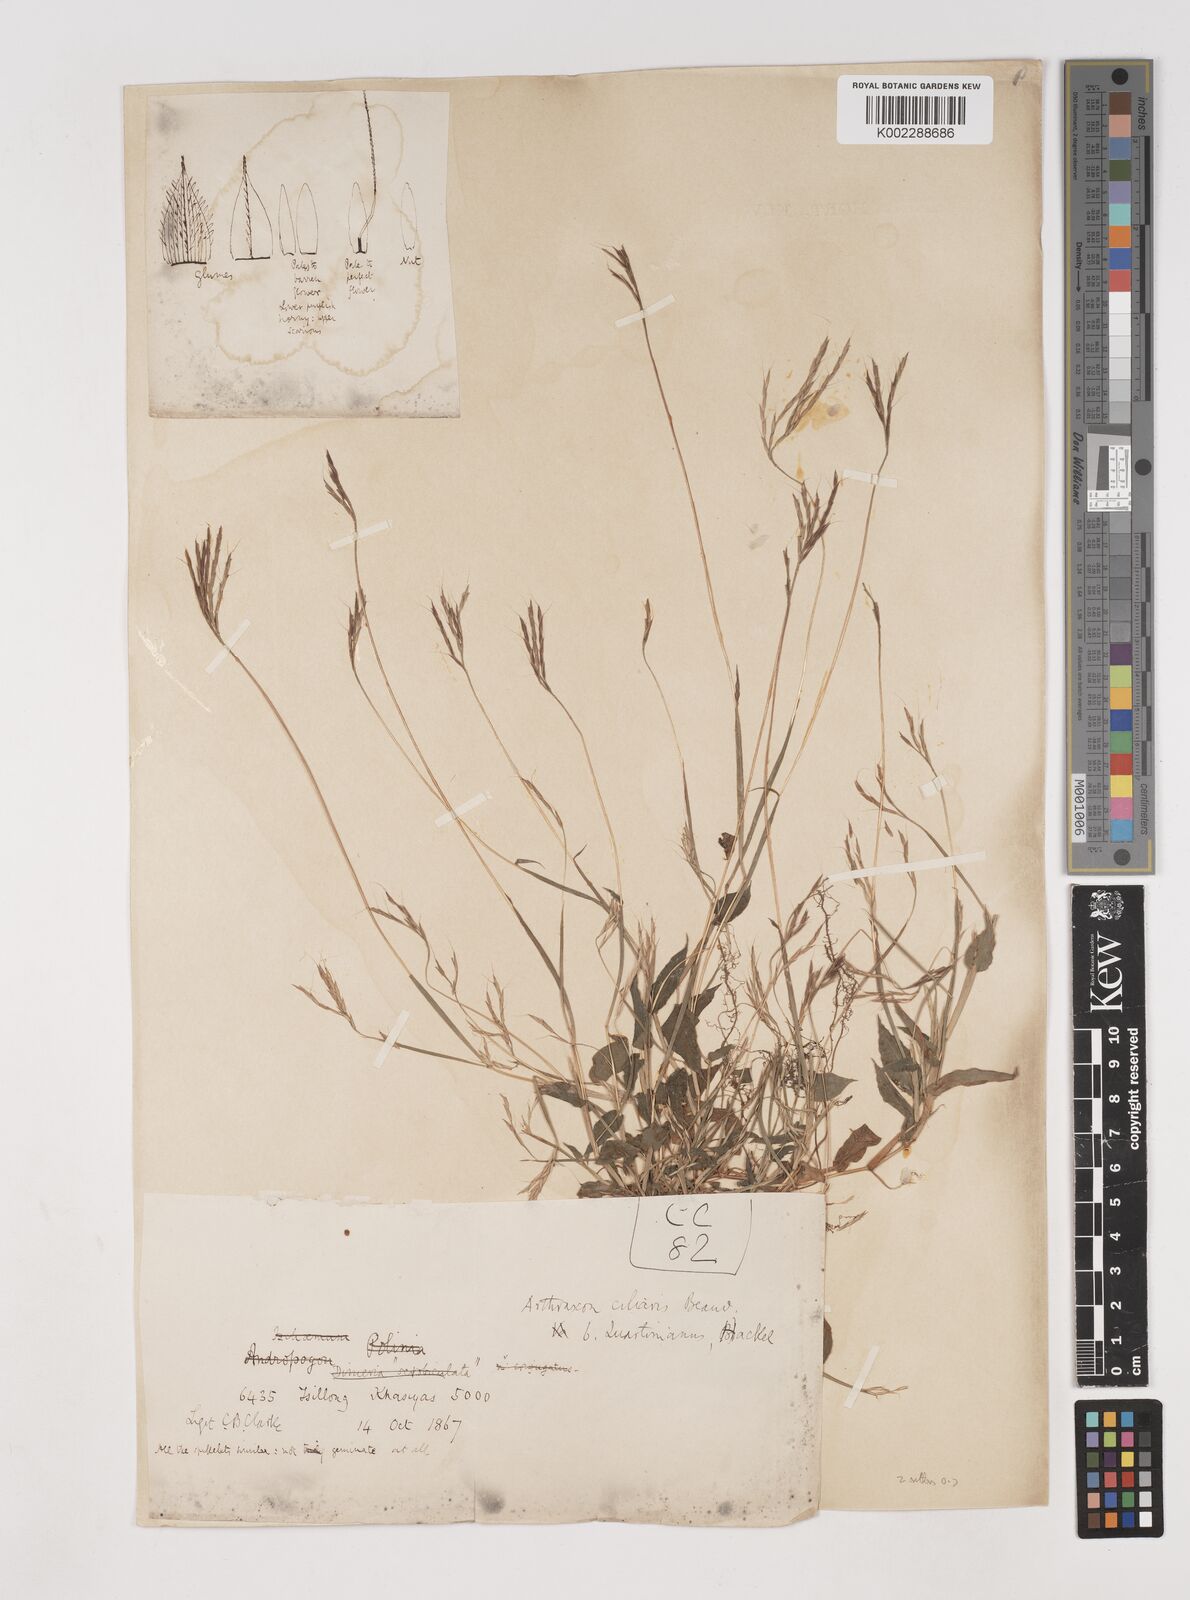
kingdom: Plantae
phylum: Tracheophyta
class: Liliopsida
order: Poales
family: Poaceae
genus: Arthraxon
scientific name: Arthraxon hispidus
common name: Small carpgrass
